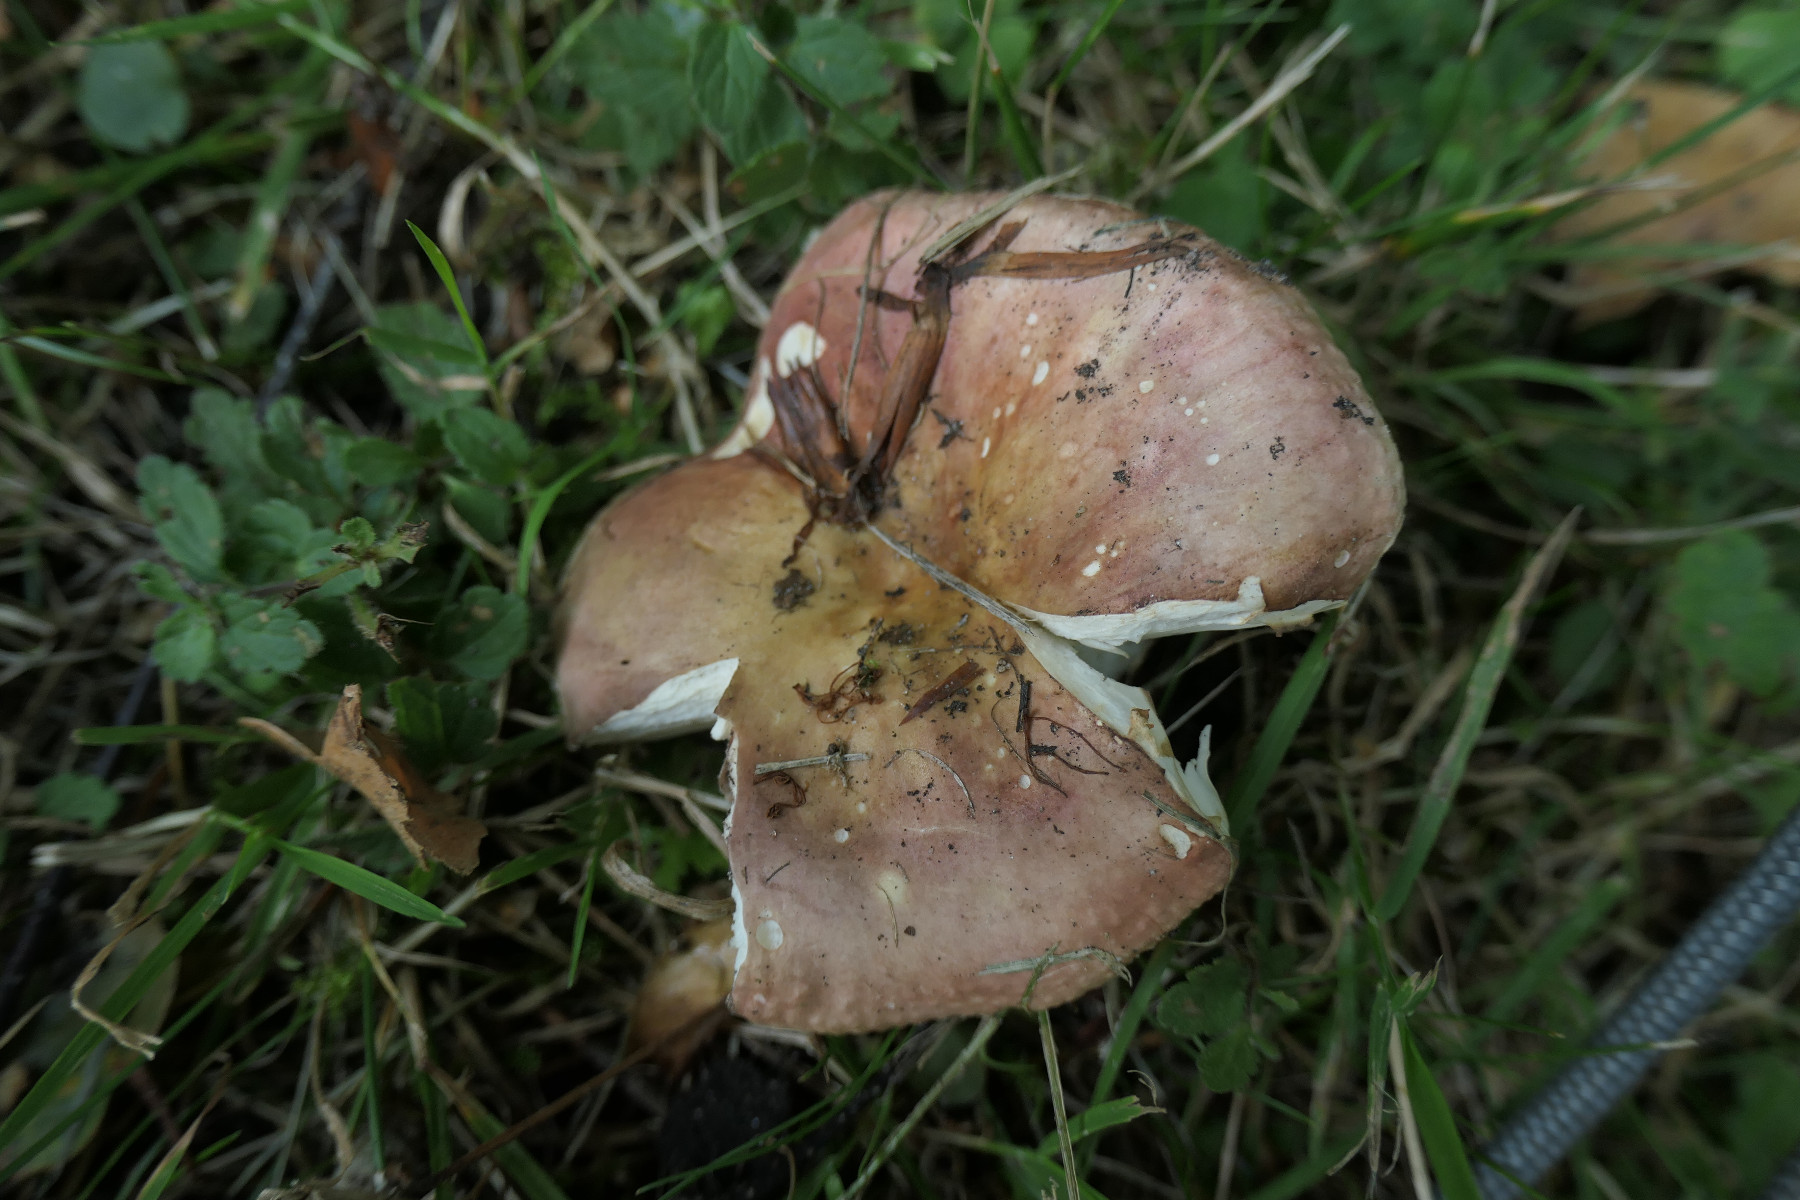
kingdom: Fungi
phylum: Basidiomycota
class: Agaricomycetes
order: Russulales
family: Russulaceae
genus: Russula
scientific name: Russula graveolens
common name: bugtet skørhat
